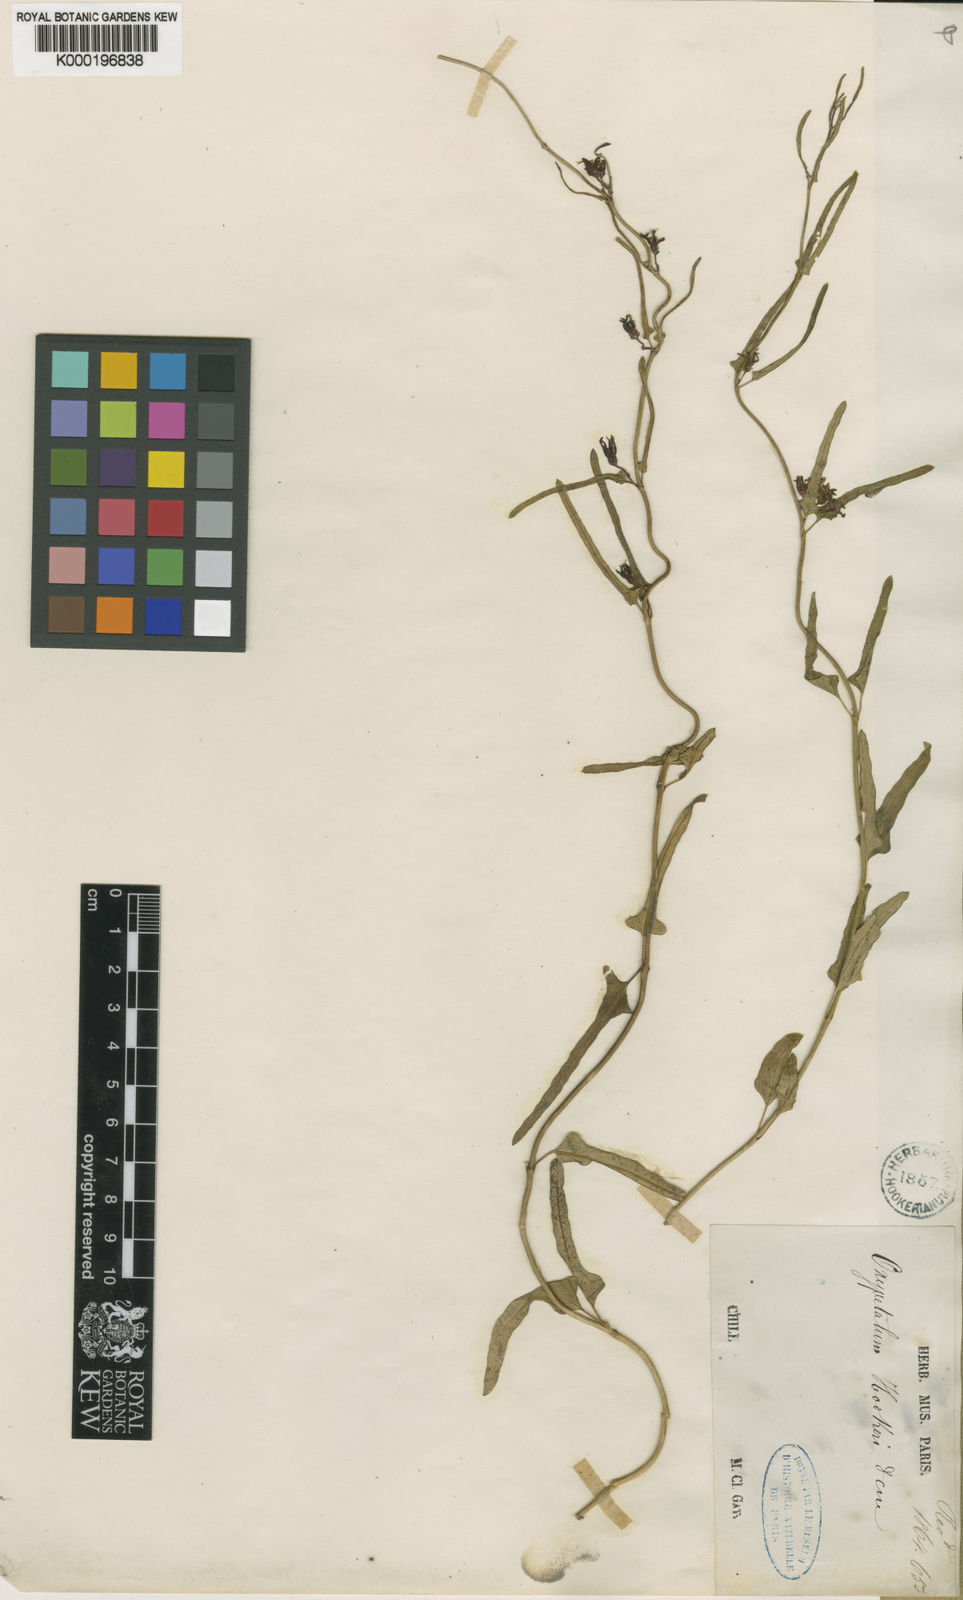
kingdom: Plantae
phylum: Tracheophyta
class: Magnoliopsida
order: Gentianales
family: Apocynaceae
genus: Tweedia
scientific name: Tweedia birostrata
